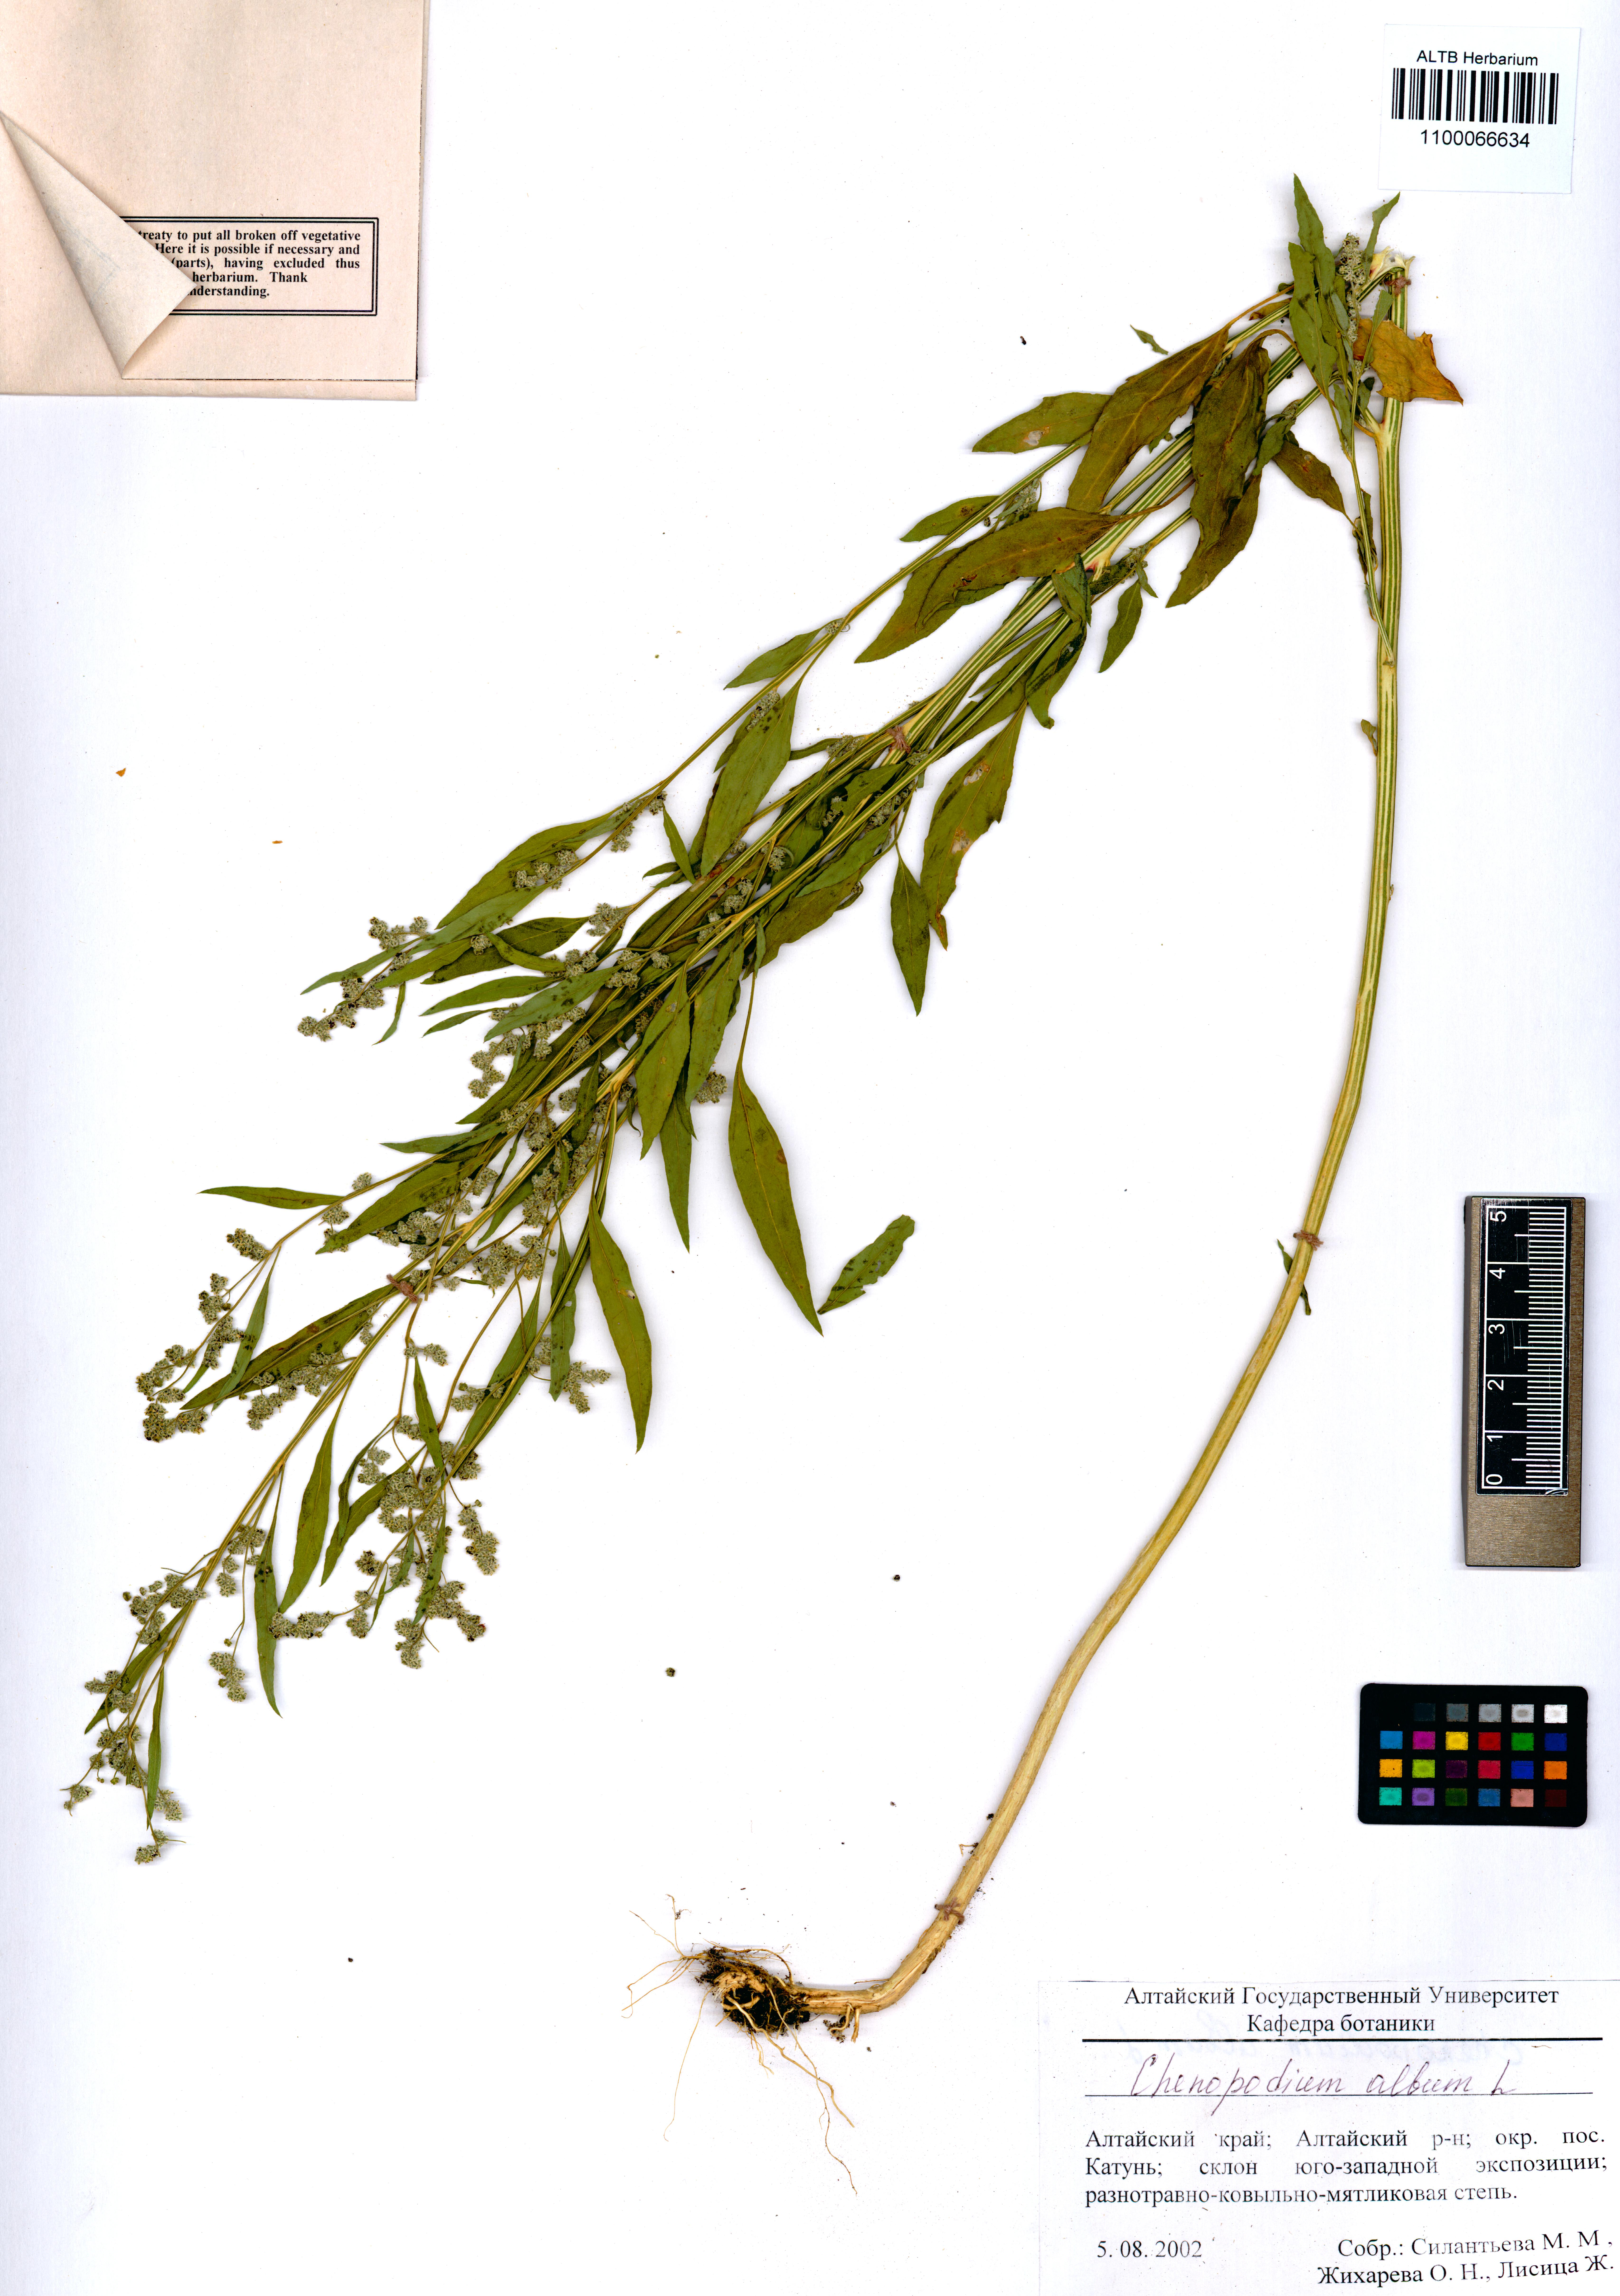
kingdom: Plantae
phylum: Tracheophyta
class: Magnoliopsida
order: Caryophyllales
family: Amaranthaceae
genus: Chenopodium
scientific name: Chenopodium album
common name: Fat-hen
